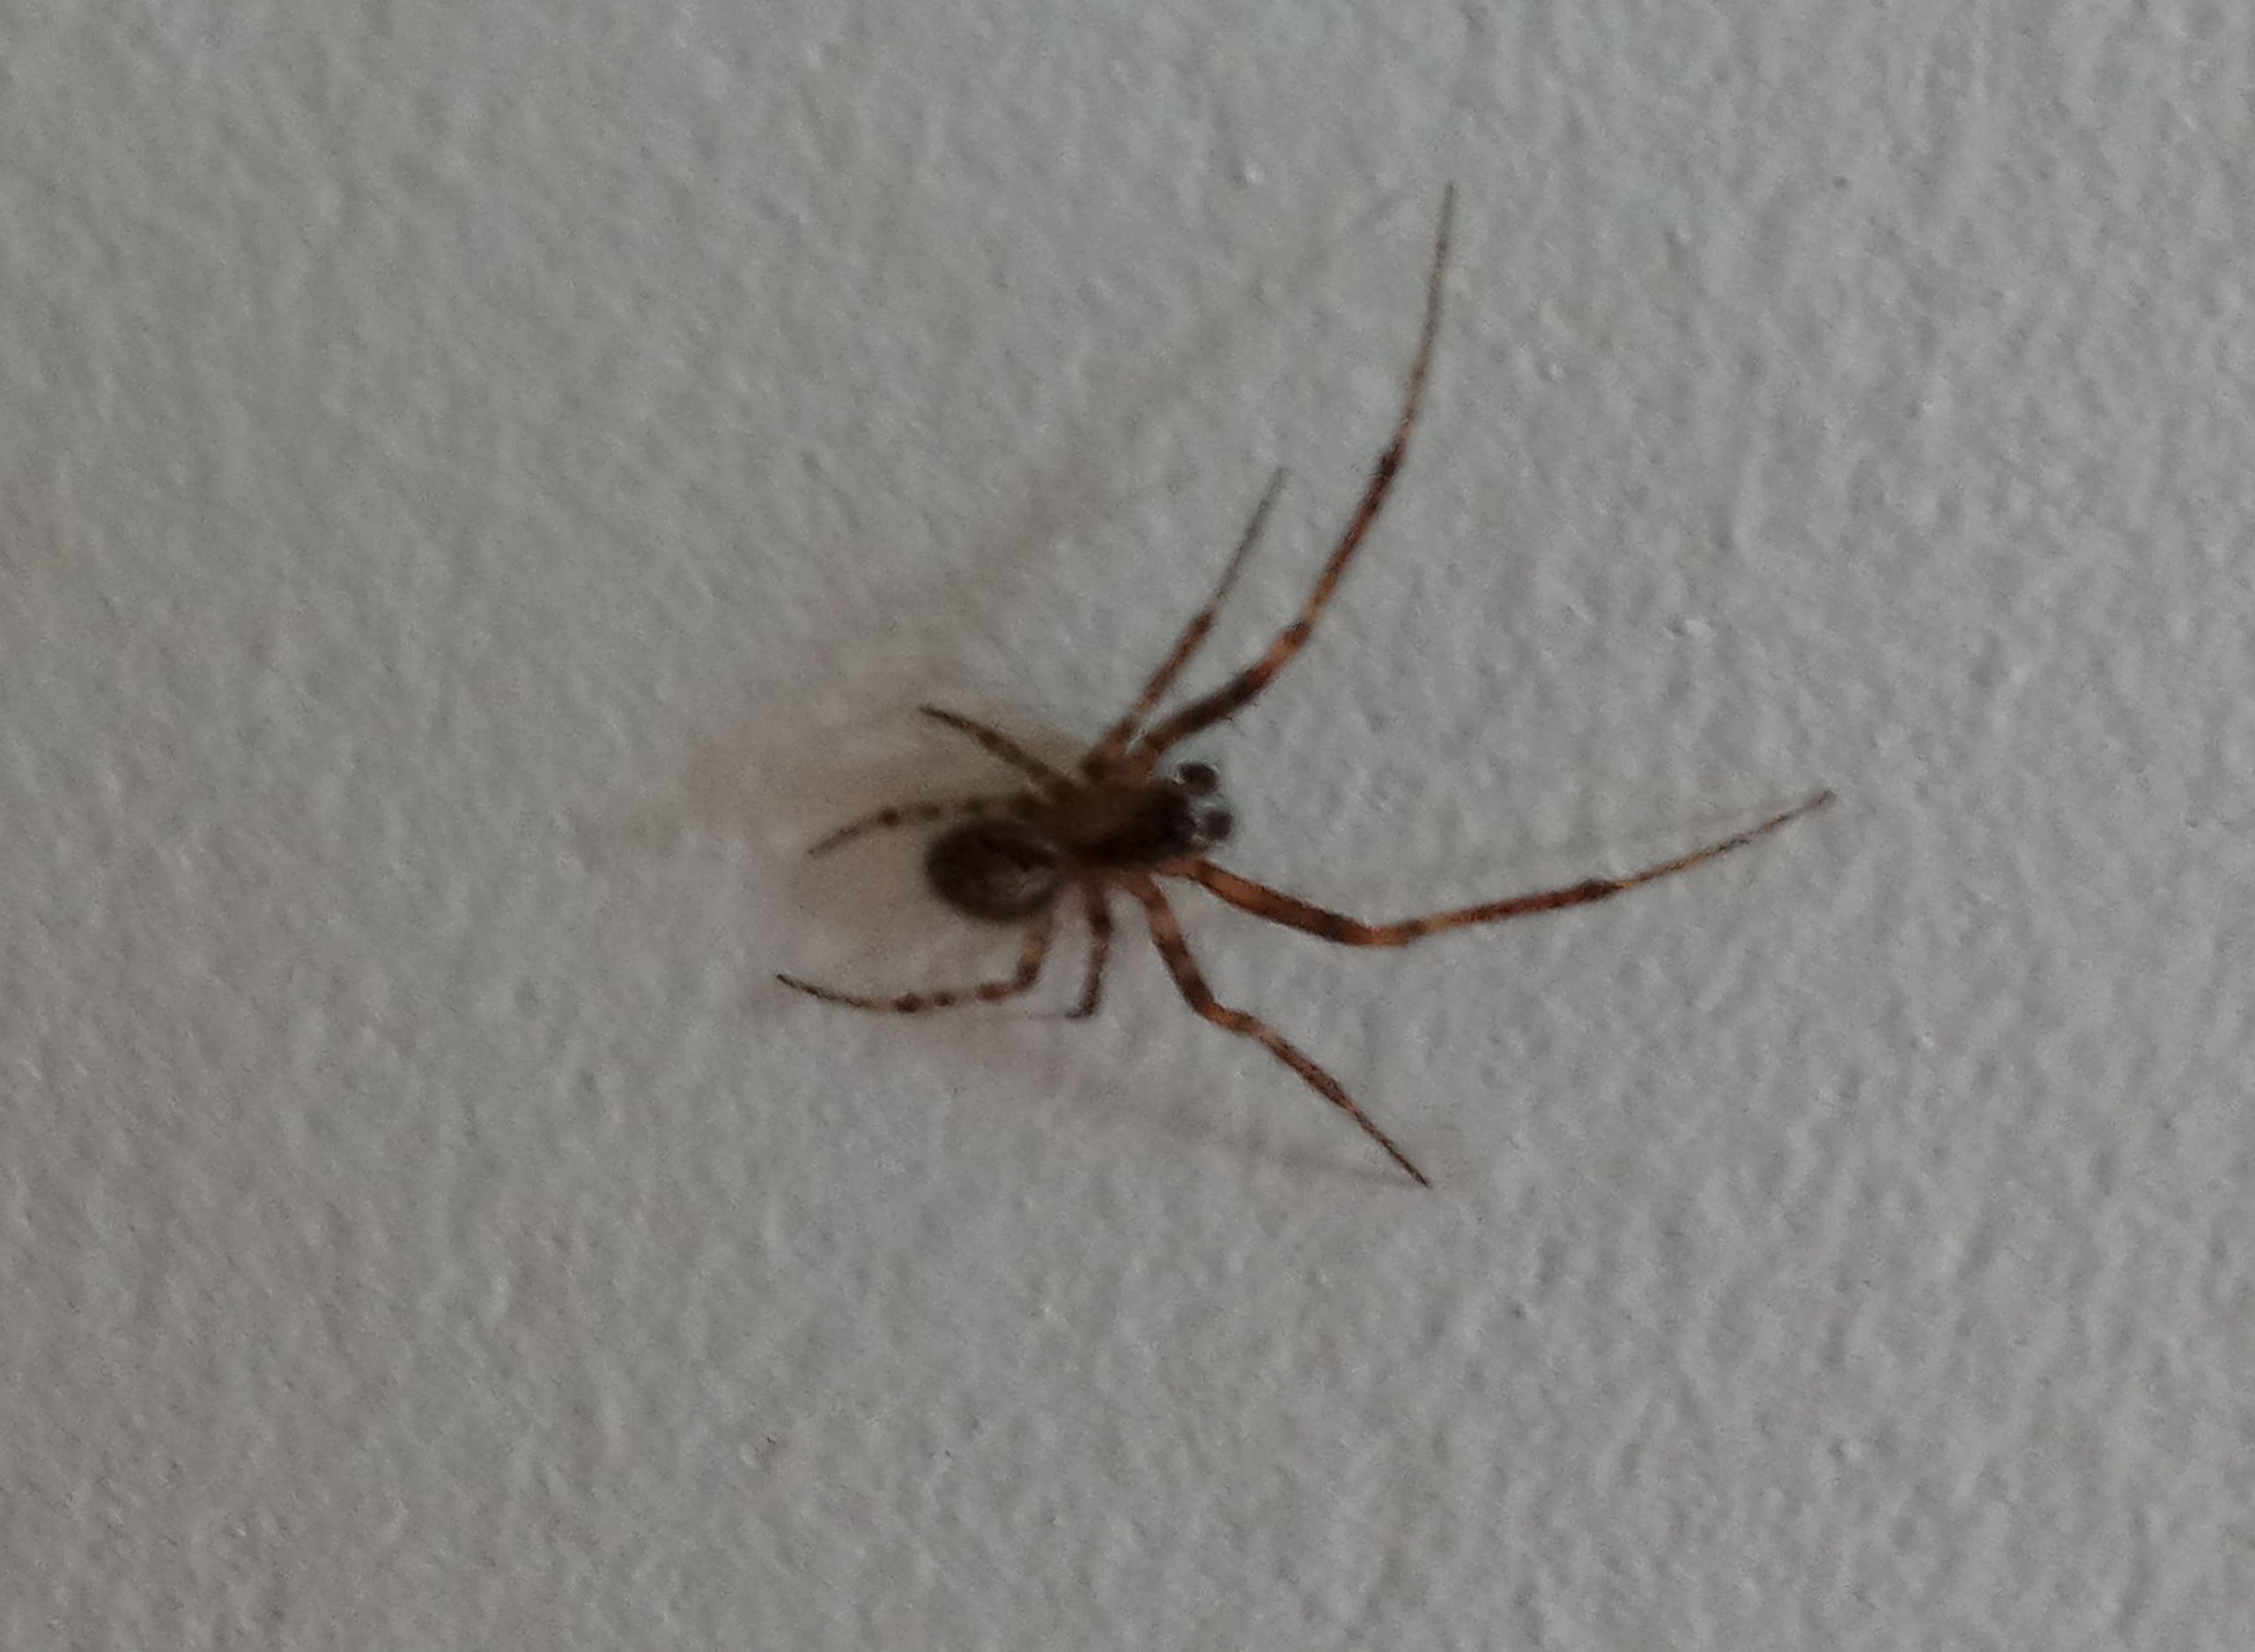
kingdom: Animalia
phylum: Arthropoda
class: Arachnida
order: Araneae
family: Araneidae
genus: Zygiella
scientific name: Zygiella
